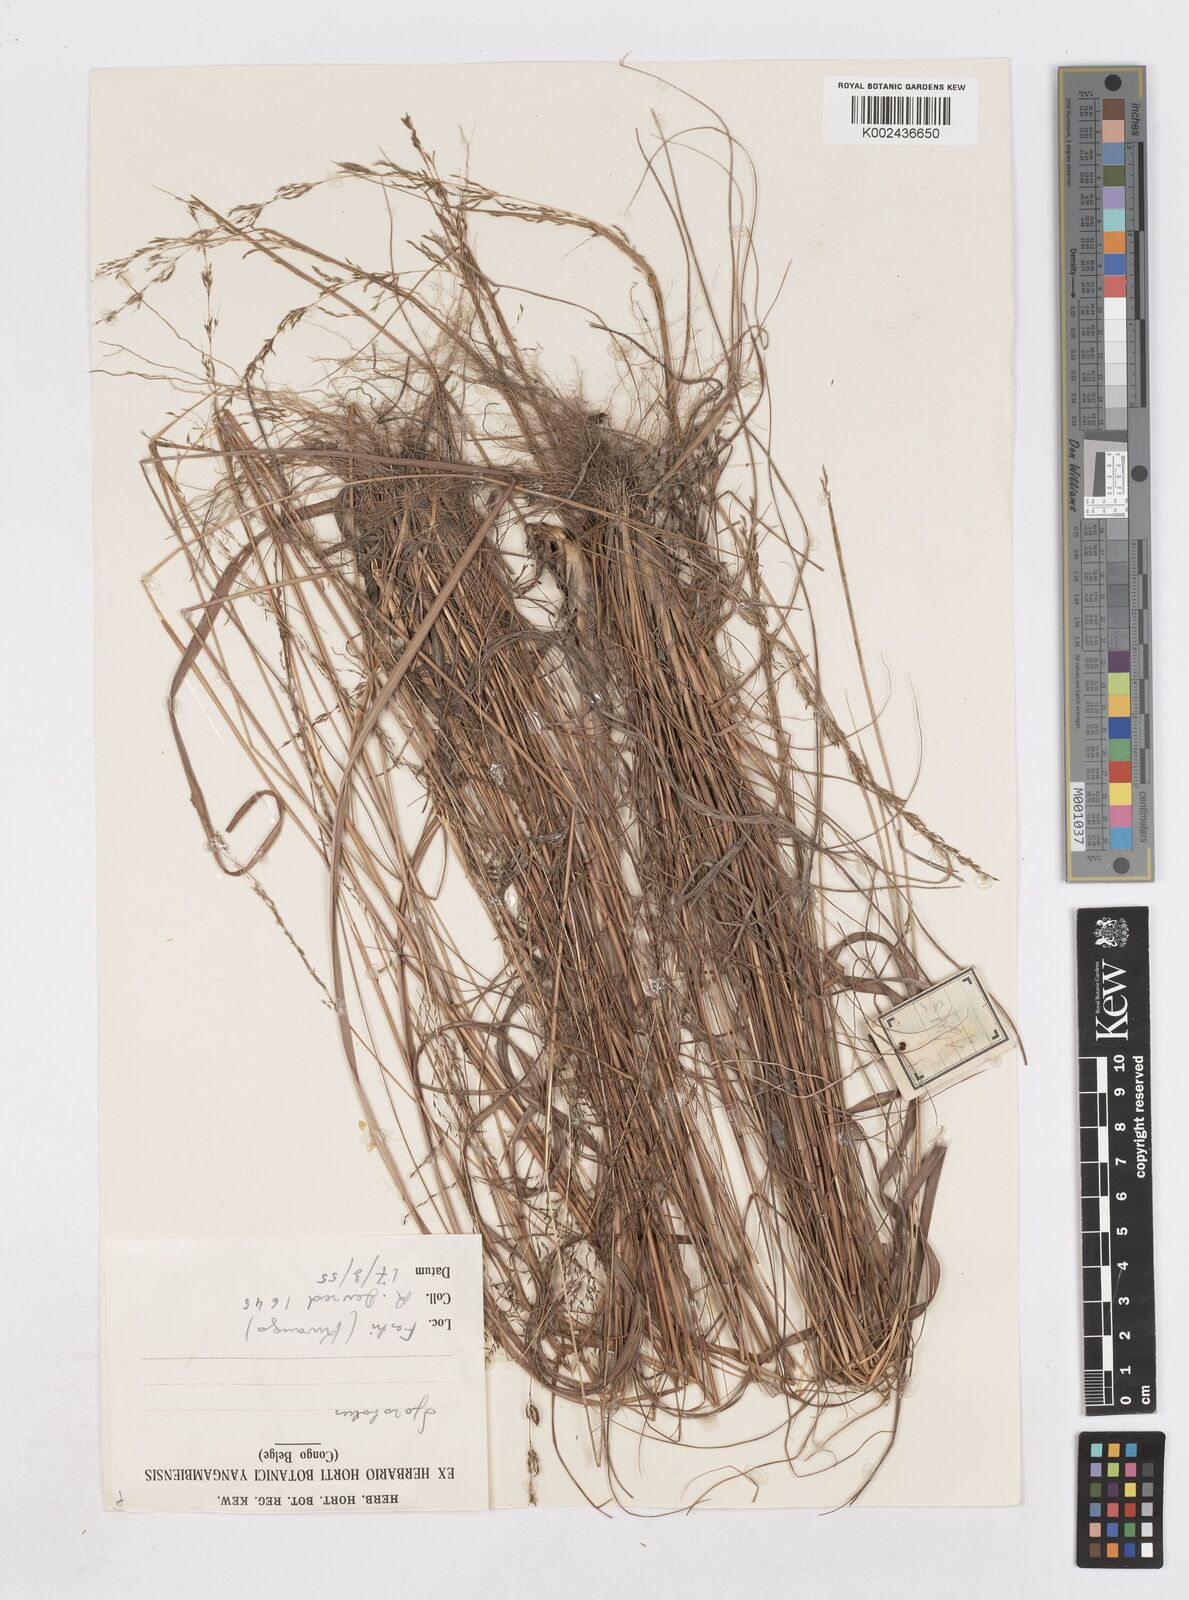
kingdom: Plantae
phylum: Tracheophyta
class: Liliopsida
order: Poales
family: Poaceae
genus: Sporobolus
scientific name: Sporobolus sanguineus
